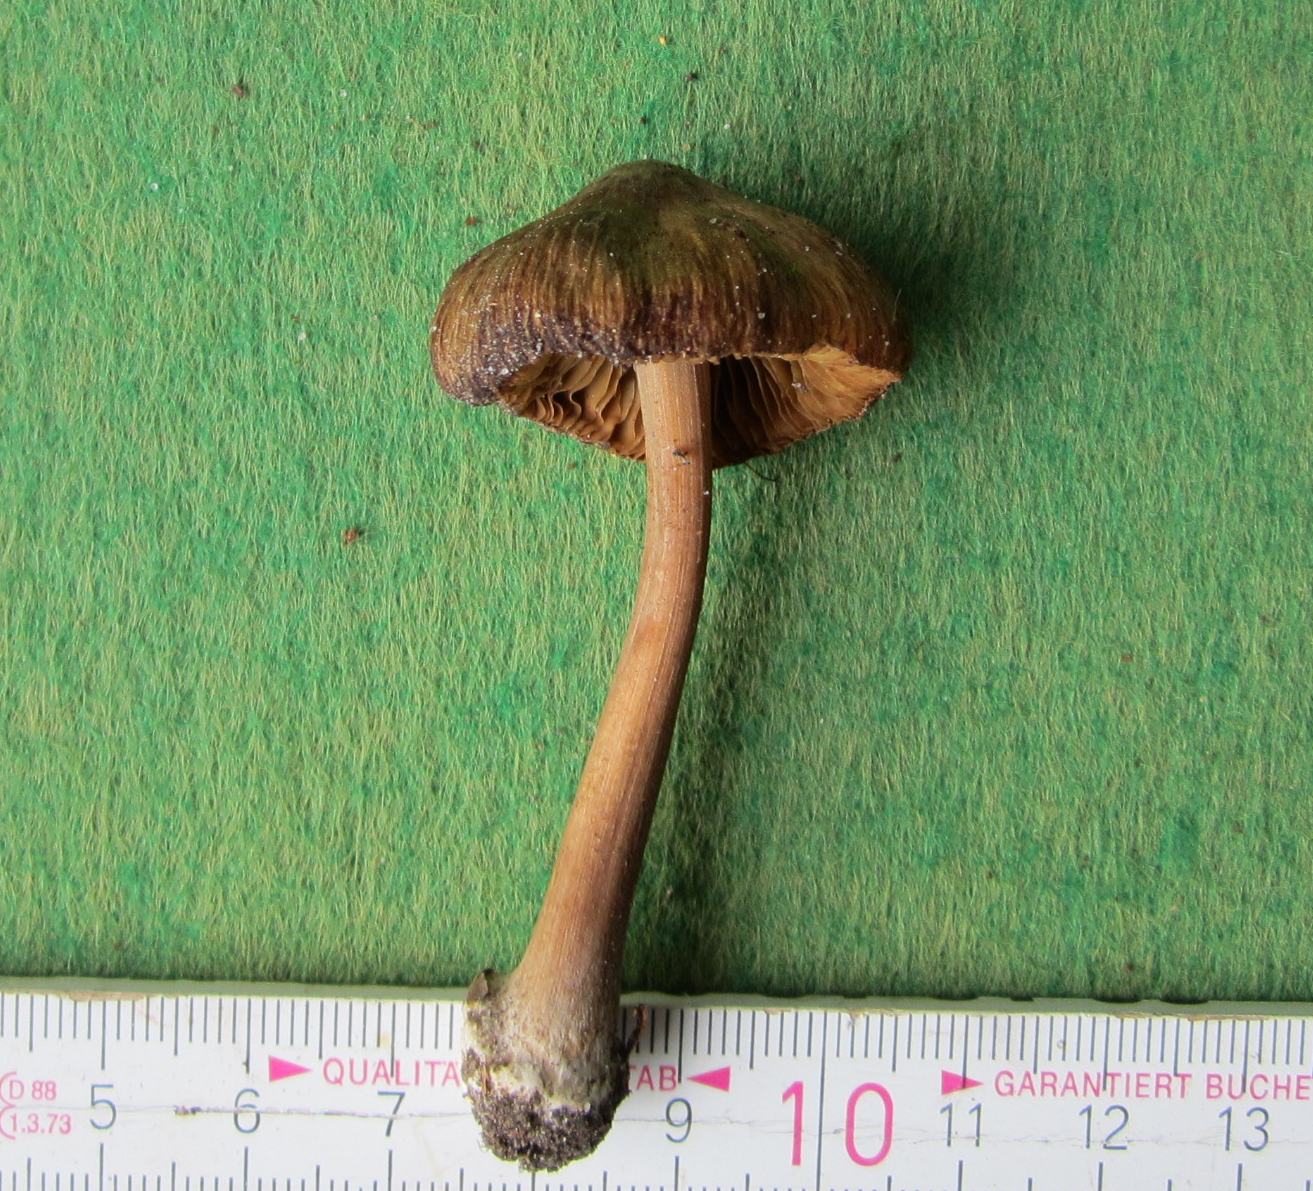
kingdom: Fungi
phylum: Basidiomycota
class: Agaricomycetes
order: Agaricales
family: Inocybaceae
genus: Inocybe
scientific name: Inocybe asterospora
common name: stjernesporet trævlhat
